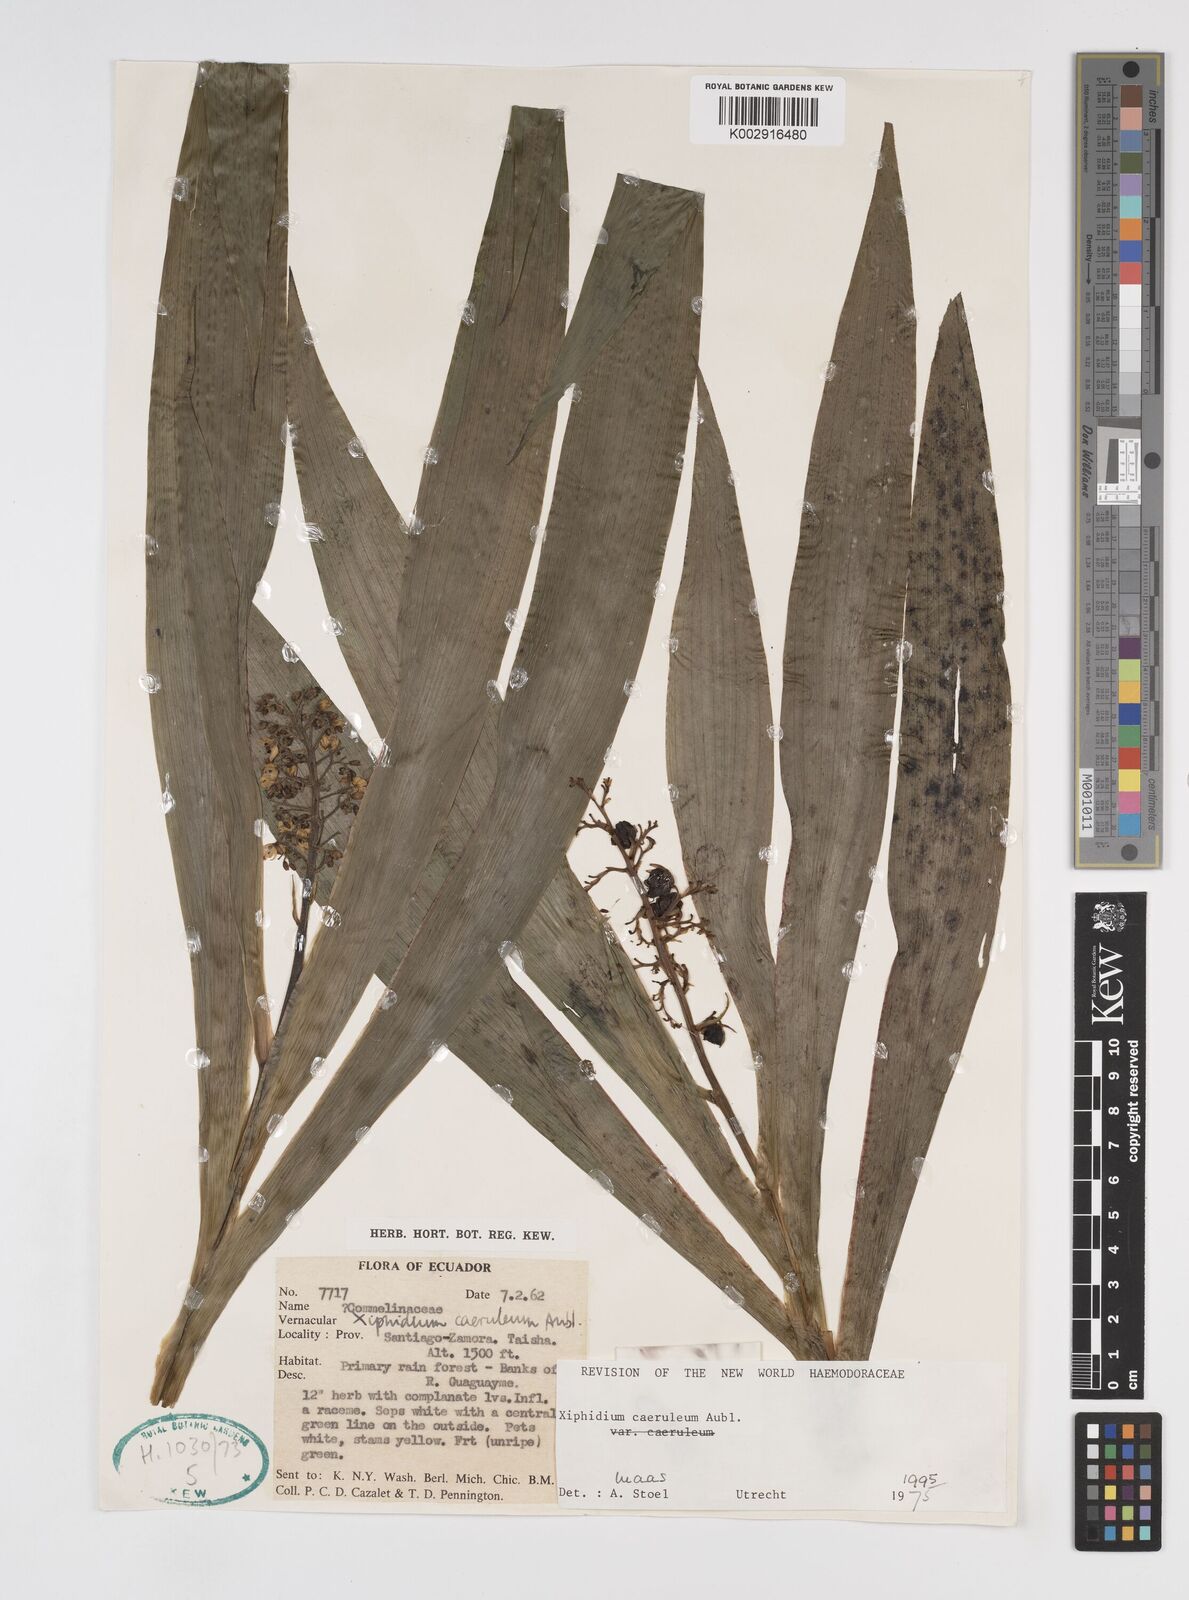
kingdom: Plantae
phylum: Tracheophyta
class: Liliopsida
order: Commelinales
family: Haemodoraceae
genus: Xiphidium
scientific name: Xiphidium caeruleum
